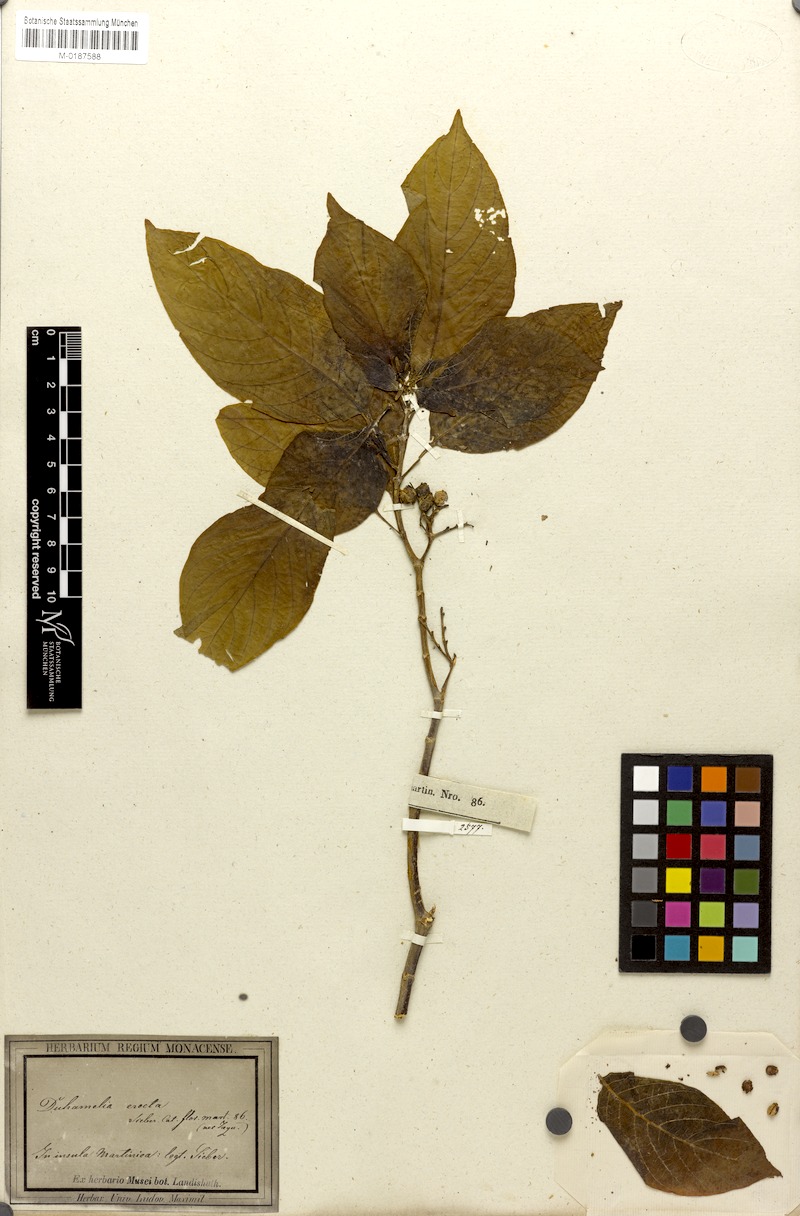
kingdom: Plantae
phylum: Tracheophyta
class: Magnoliopsida
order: Gentianales
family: Rubiaceae
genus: Hamelia
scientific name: Hamelia patens
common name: Redhead
